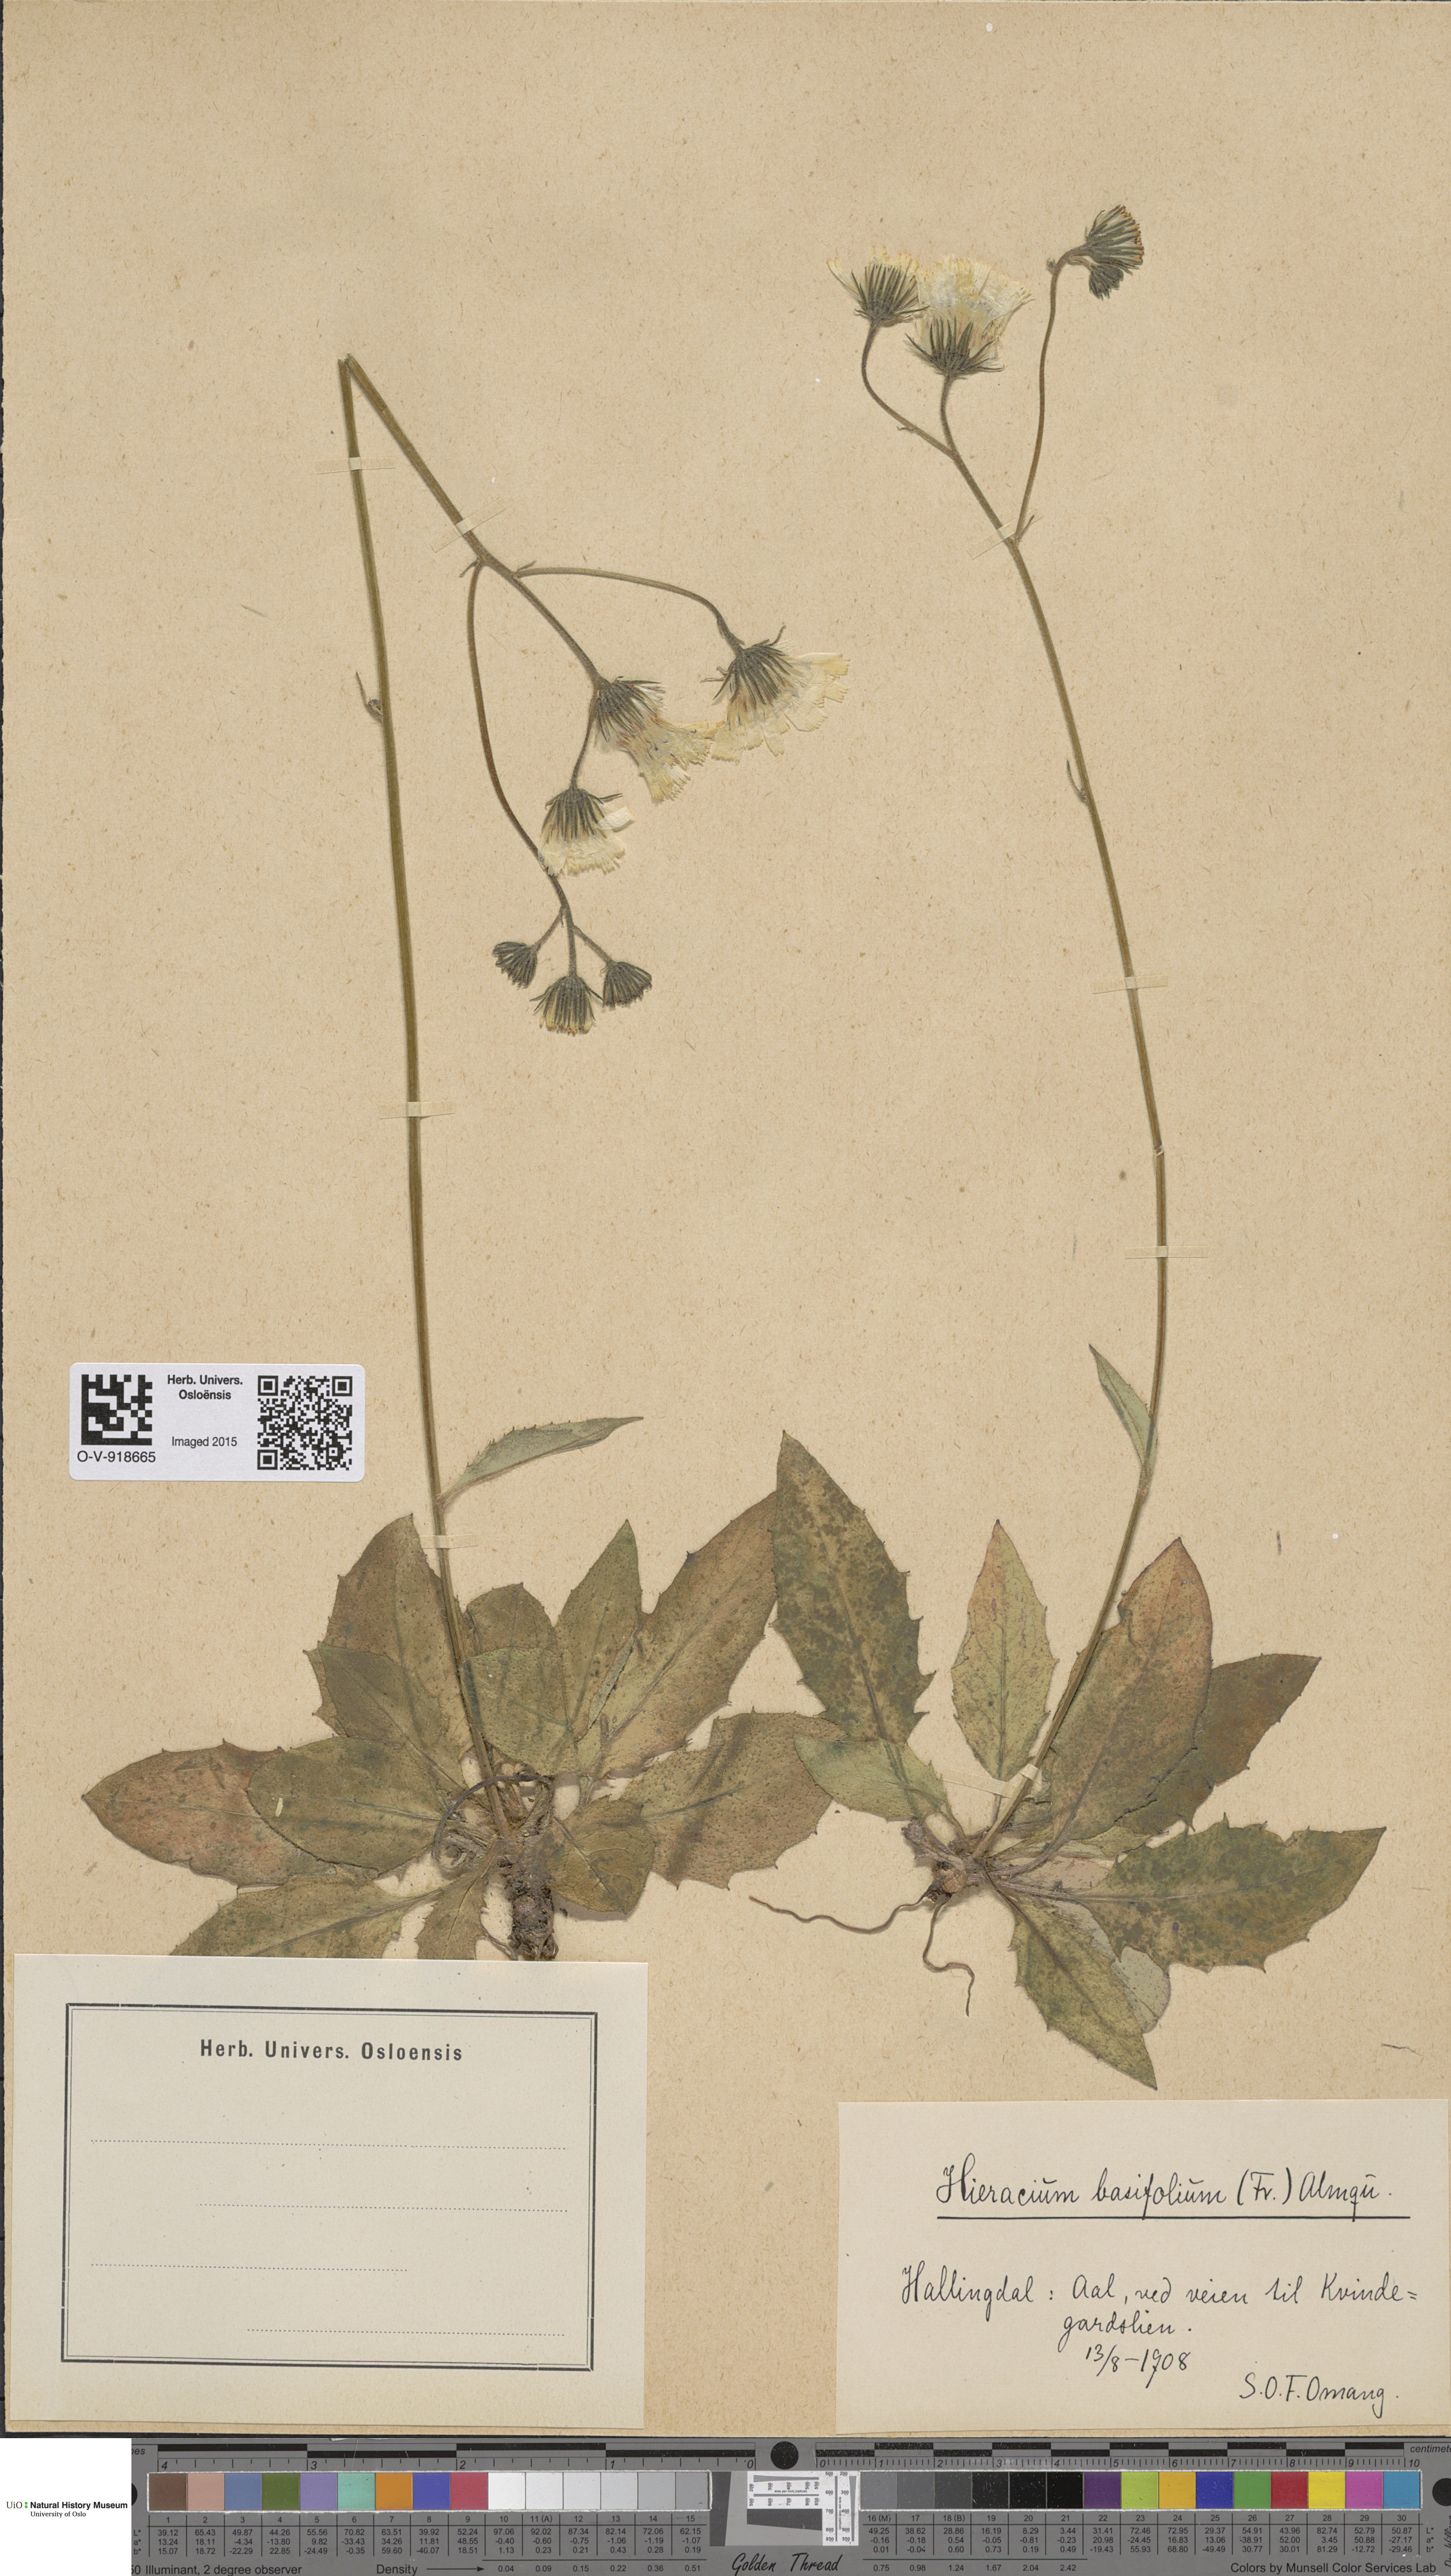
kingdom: Plantae
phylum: Tracheophyta
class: Magnoliopsida
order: Asterales
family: Asteraceae
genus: Hieracium
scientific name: Hieracium basifolium
